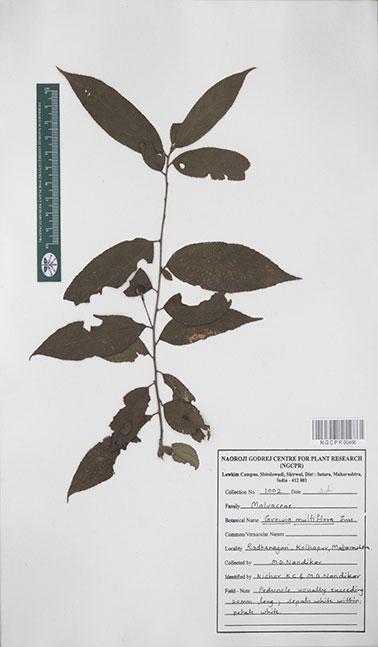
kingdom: Plantae
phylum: Tracheophyta
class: Magnoliopsida
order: Malvales
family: Malvaceae
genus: Grewia
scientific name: Grewia multiflora
